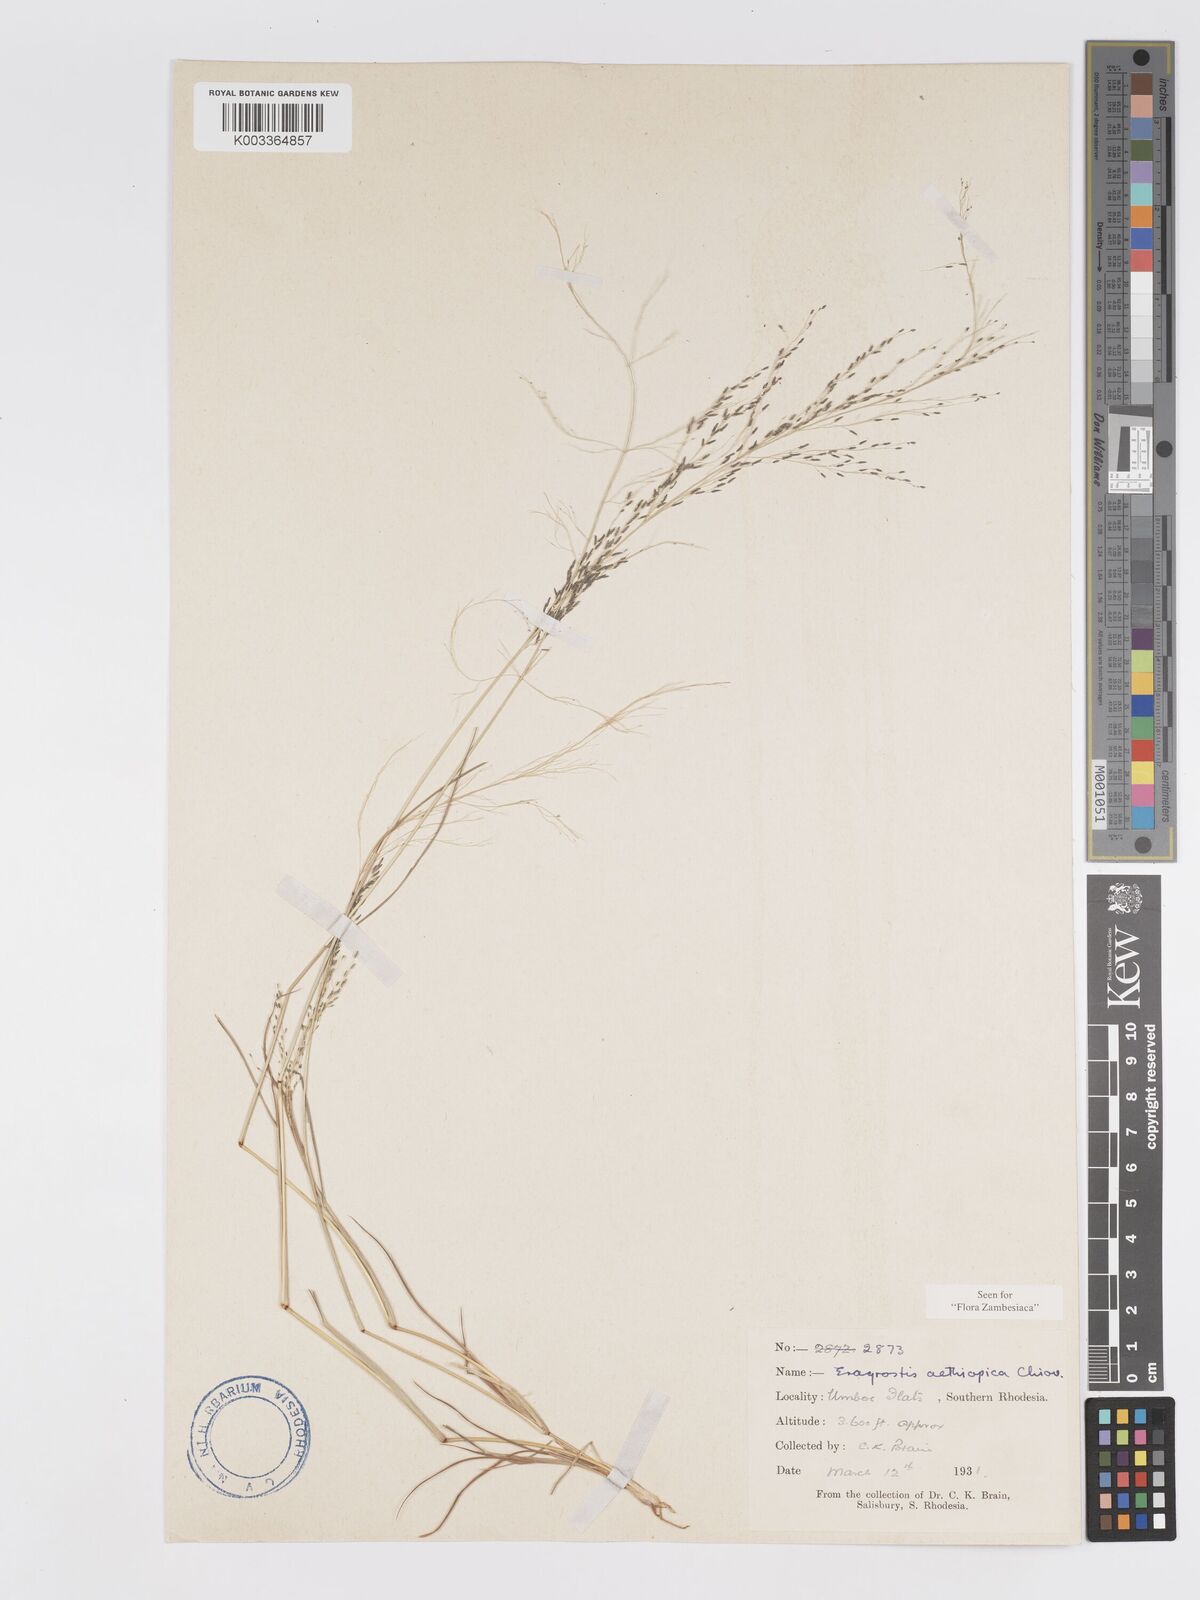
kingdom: Plantae
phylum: Tracheophyta
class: Liliopsida
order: Poales
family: Poaceae
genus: Eragrostis
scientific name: Eragrostis aethiopica
